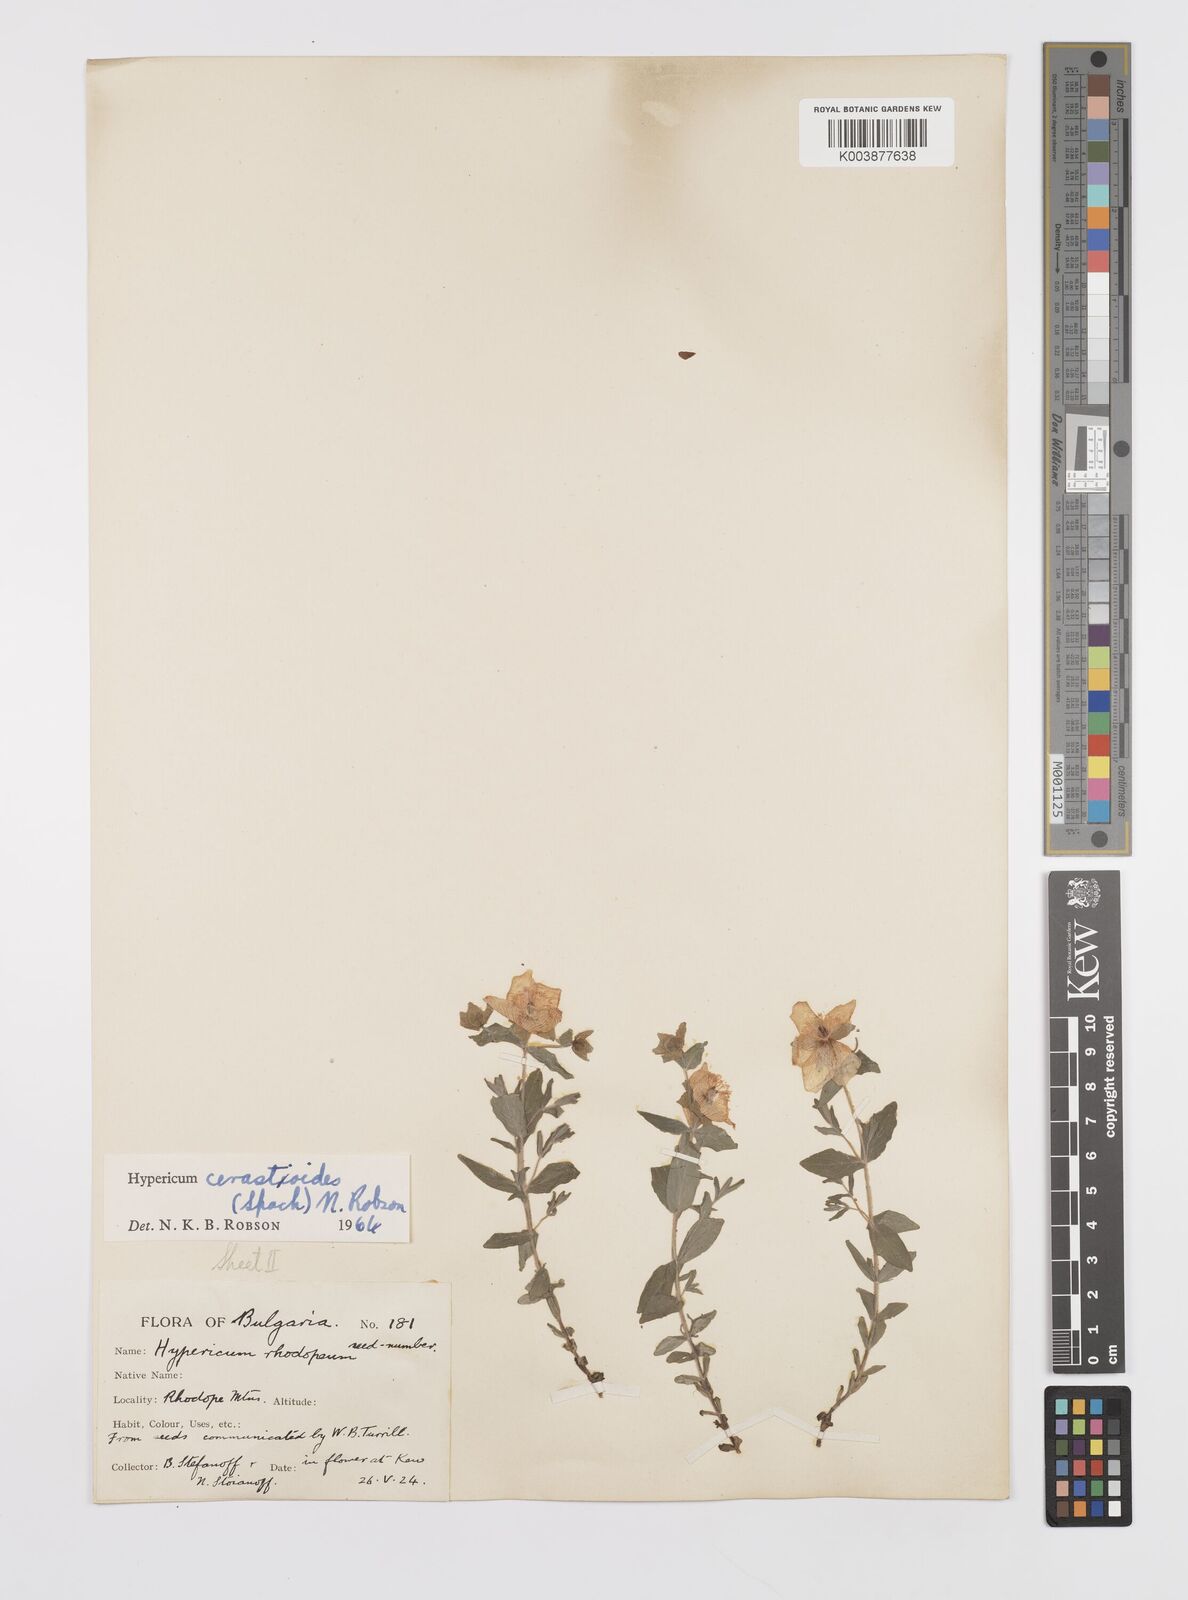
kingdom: Plantae
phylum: Tracheophyta
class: Magnoliopsida
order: Malpighiales
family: Hypericaceae
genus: Hypericum
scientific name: Hypericum cerastoides
